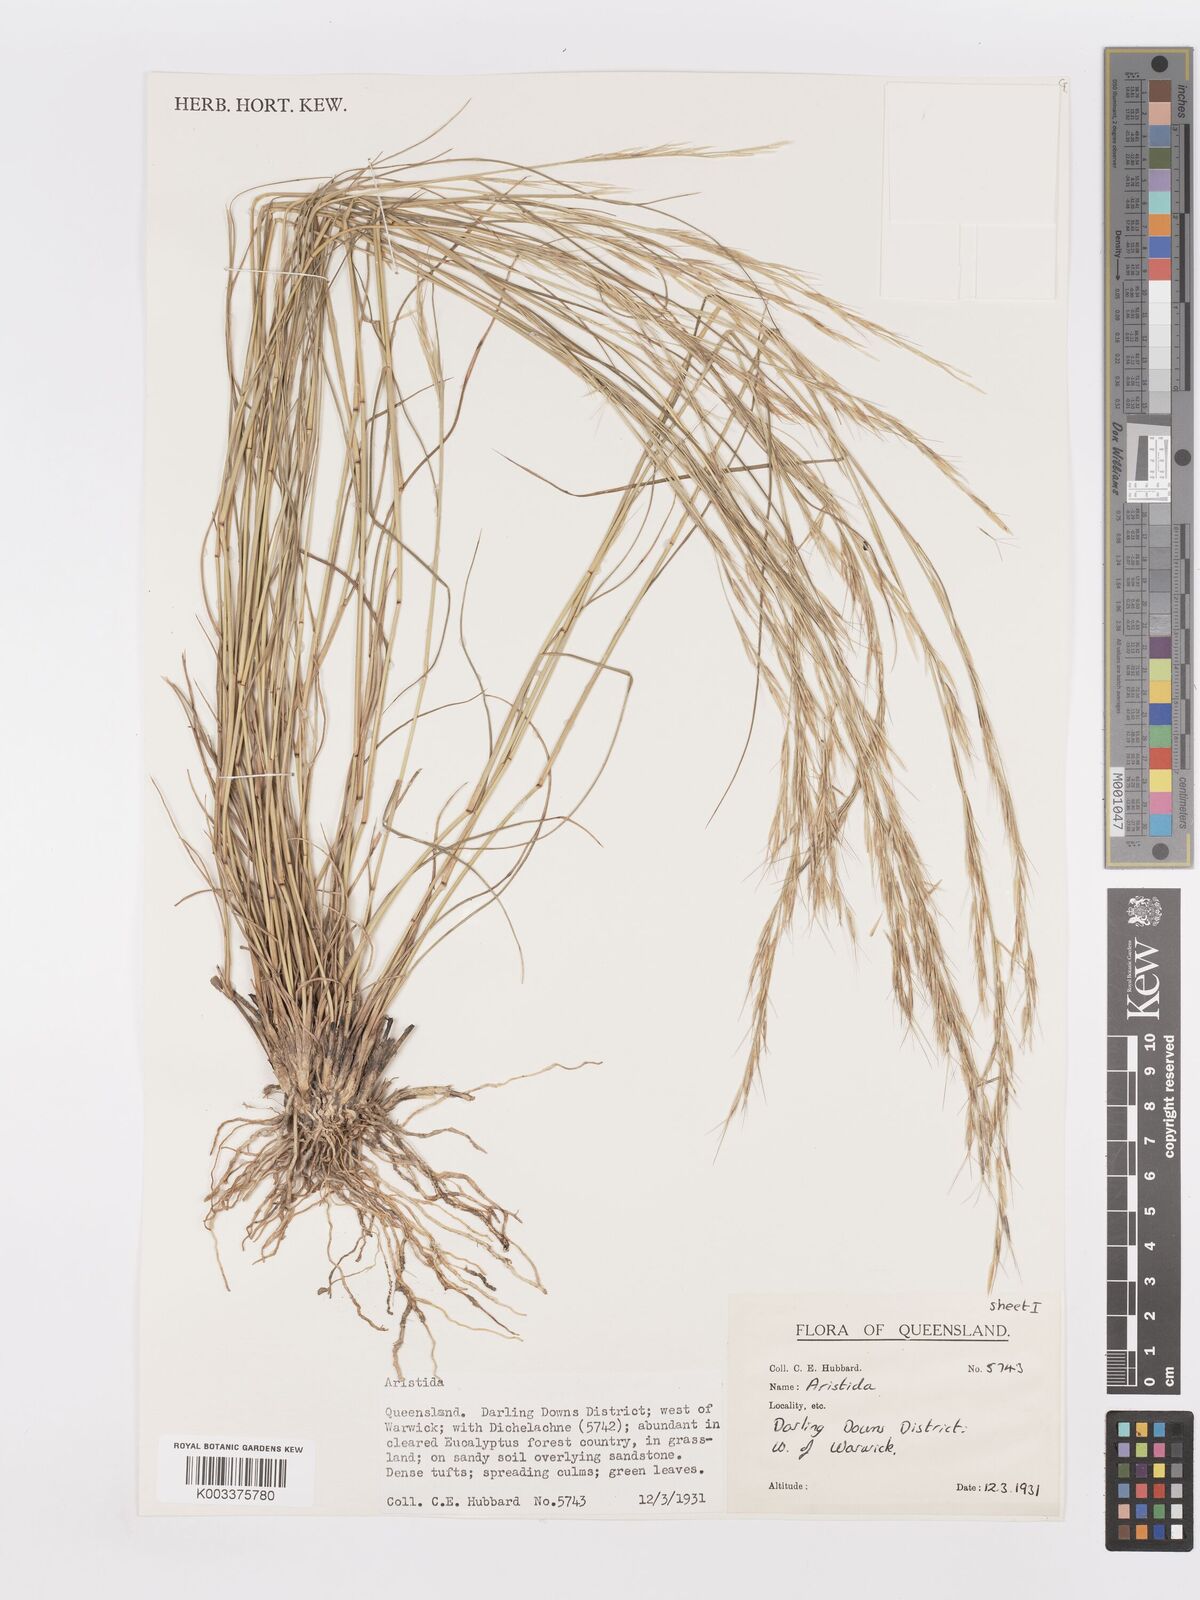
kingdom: Plantae
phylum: Tracheophyta
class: Liliopsida
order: Poales
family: Poaceae
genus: Aristida
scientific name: Aristida
